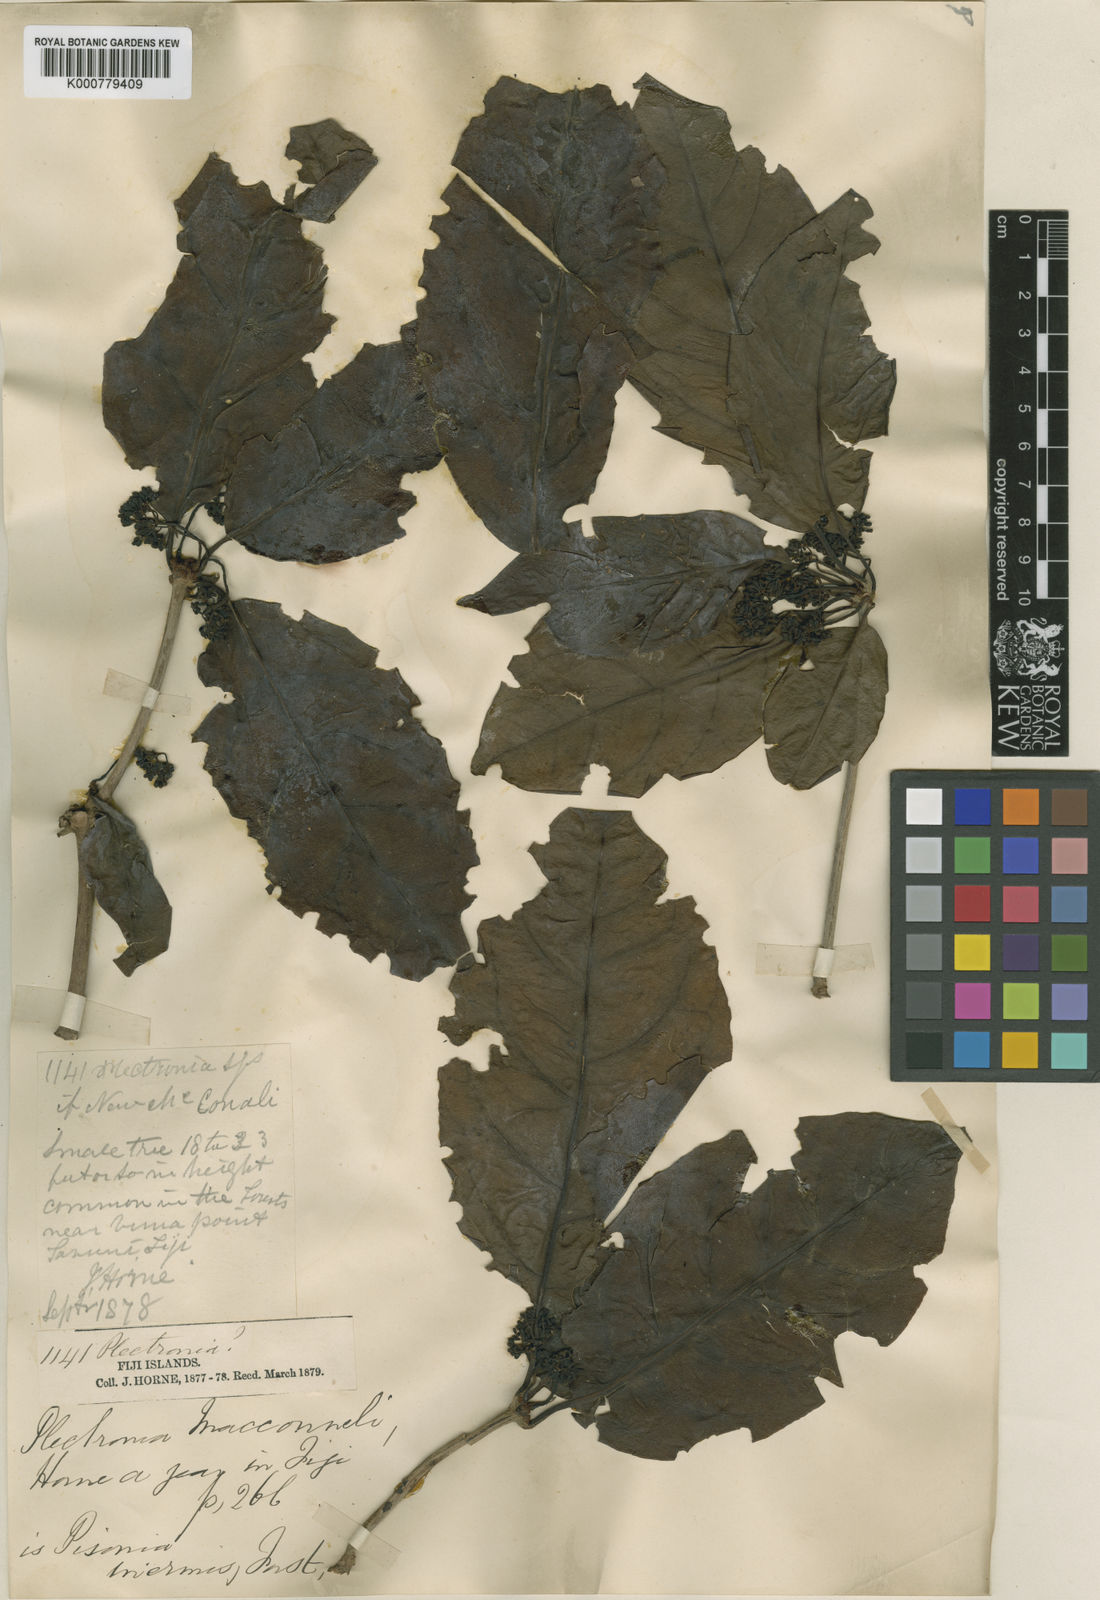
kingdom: Plantae
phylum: Tracheophyta
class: Magnoliopsida
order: Caryophyllales
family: Nyctaginaceae
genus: Ceodes
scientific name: Ceodes umbellifera
